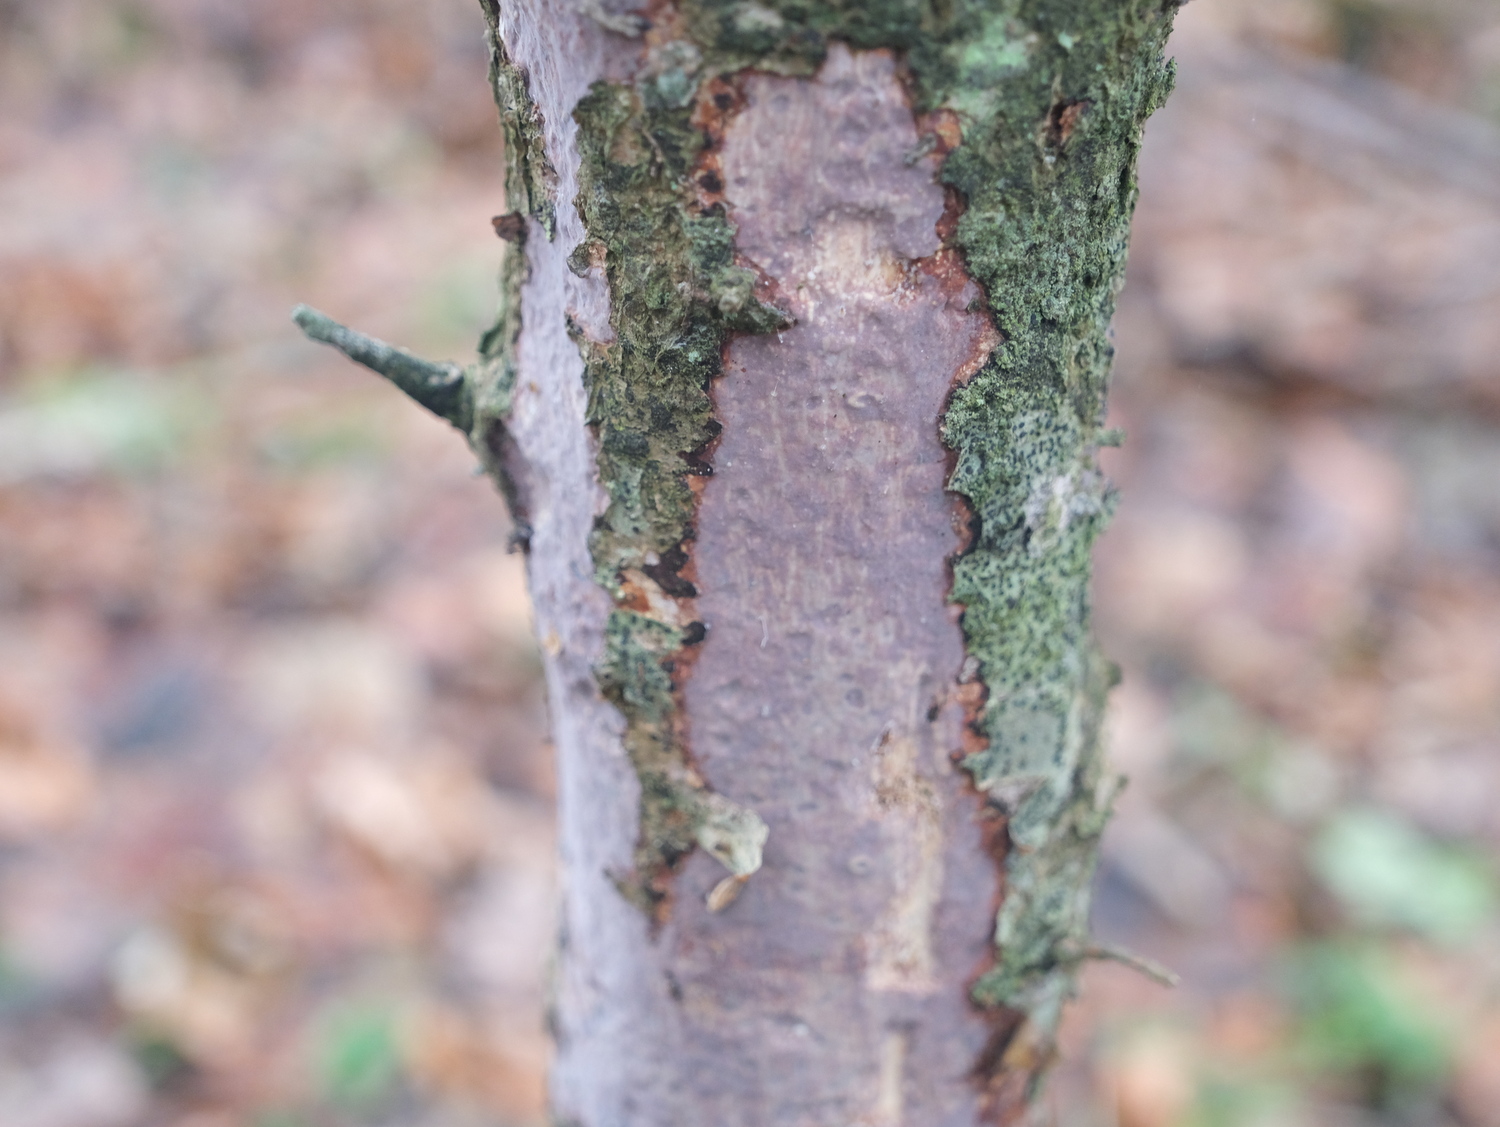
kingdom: Fungi
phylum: Basidiomycota
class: Agaricomycetes
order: Corticiales
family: Vuilleminiaceae
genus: Vuilleminia
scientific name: Vuilleminia comedens
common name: almindelig barksprænger
